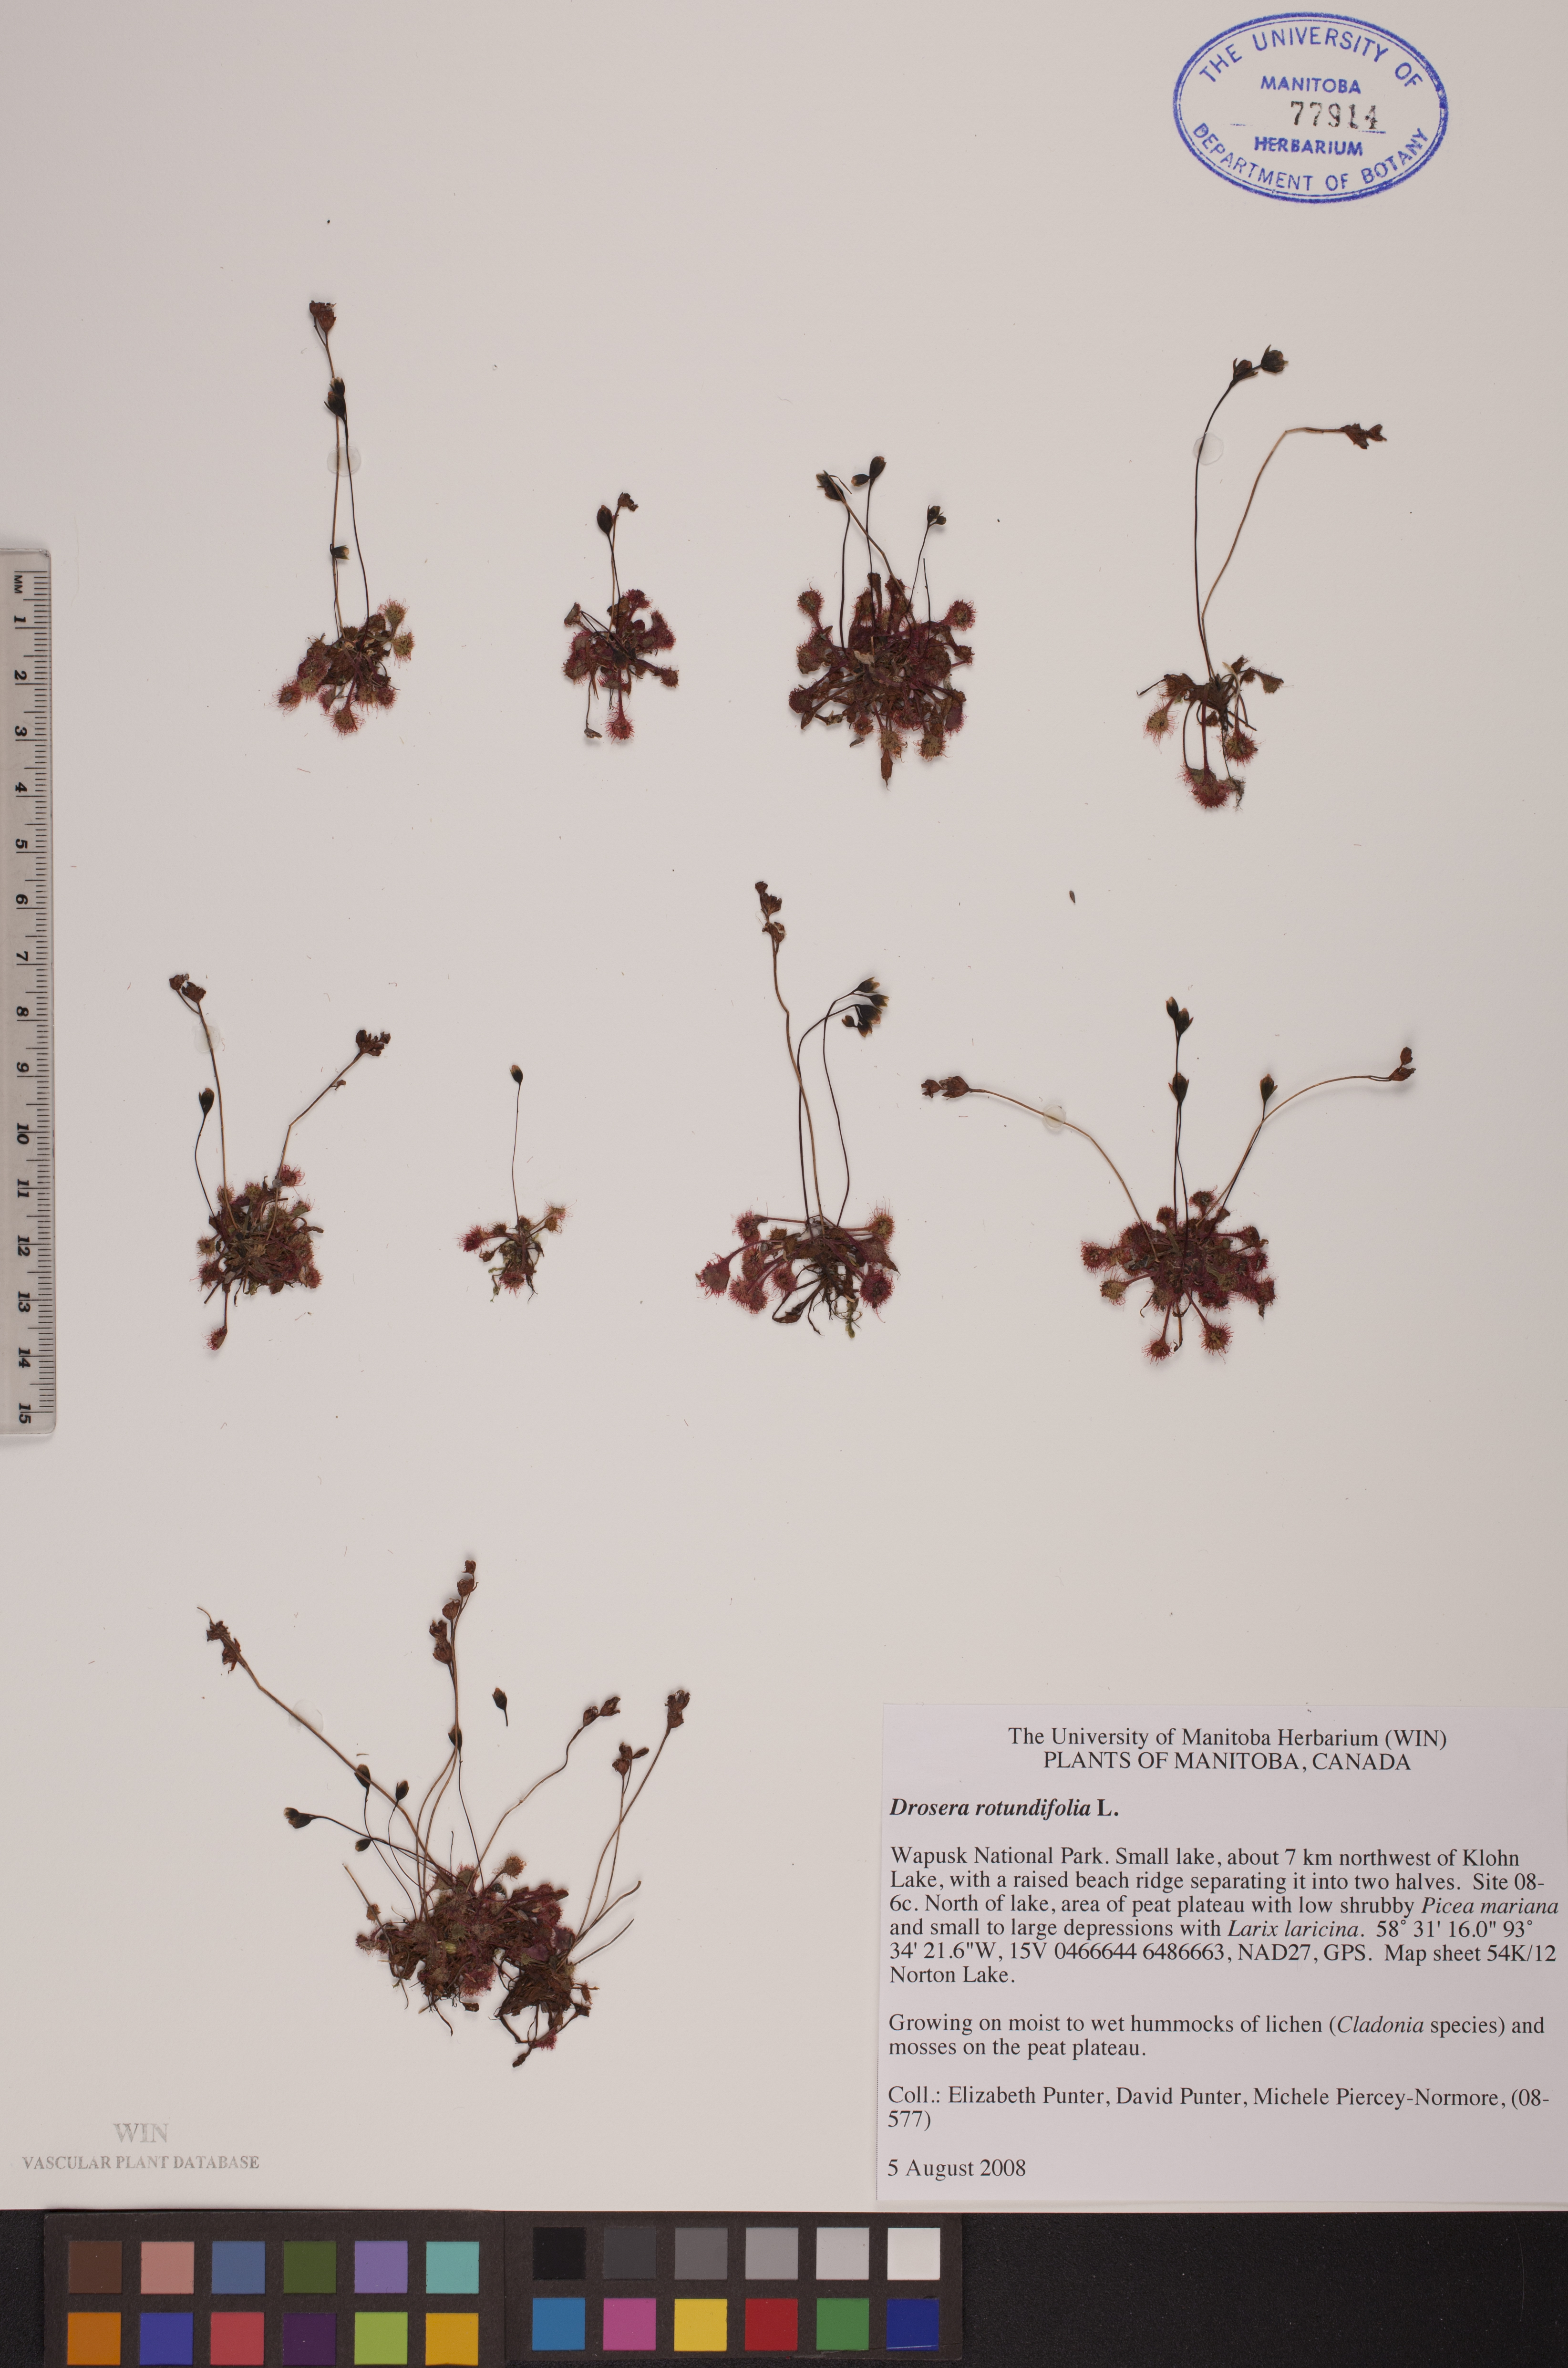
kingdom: Plantae
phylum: Tracheophyta
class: Magnoliopsida
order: Caryophyllales
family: Droseraceae
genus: Drosera
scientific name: Drosera rotundifolia
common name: Round-leaved sundew
